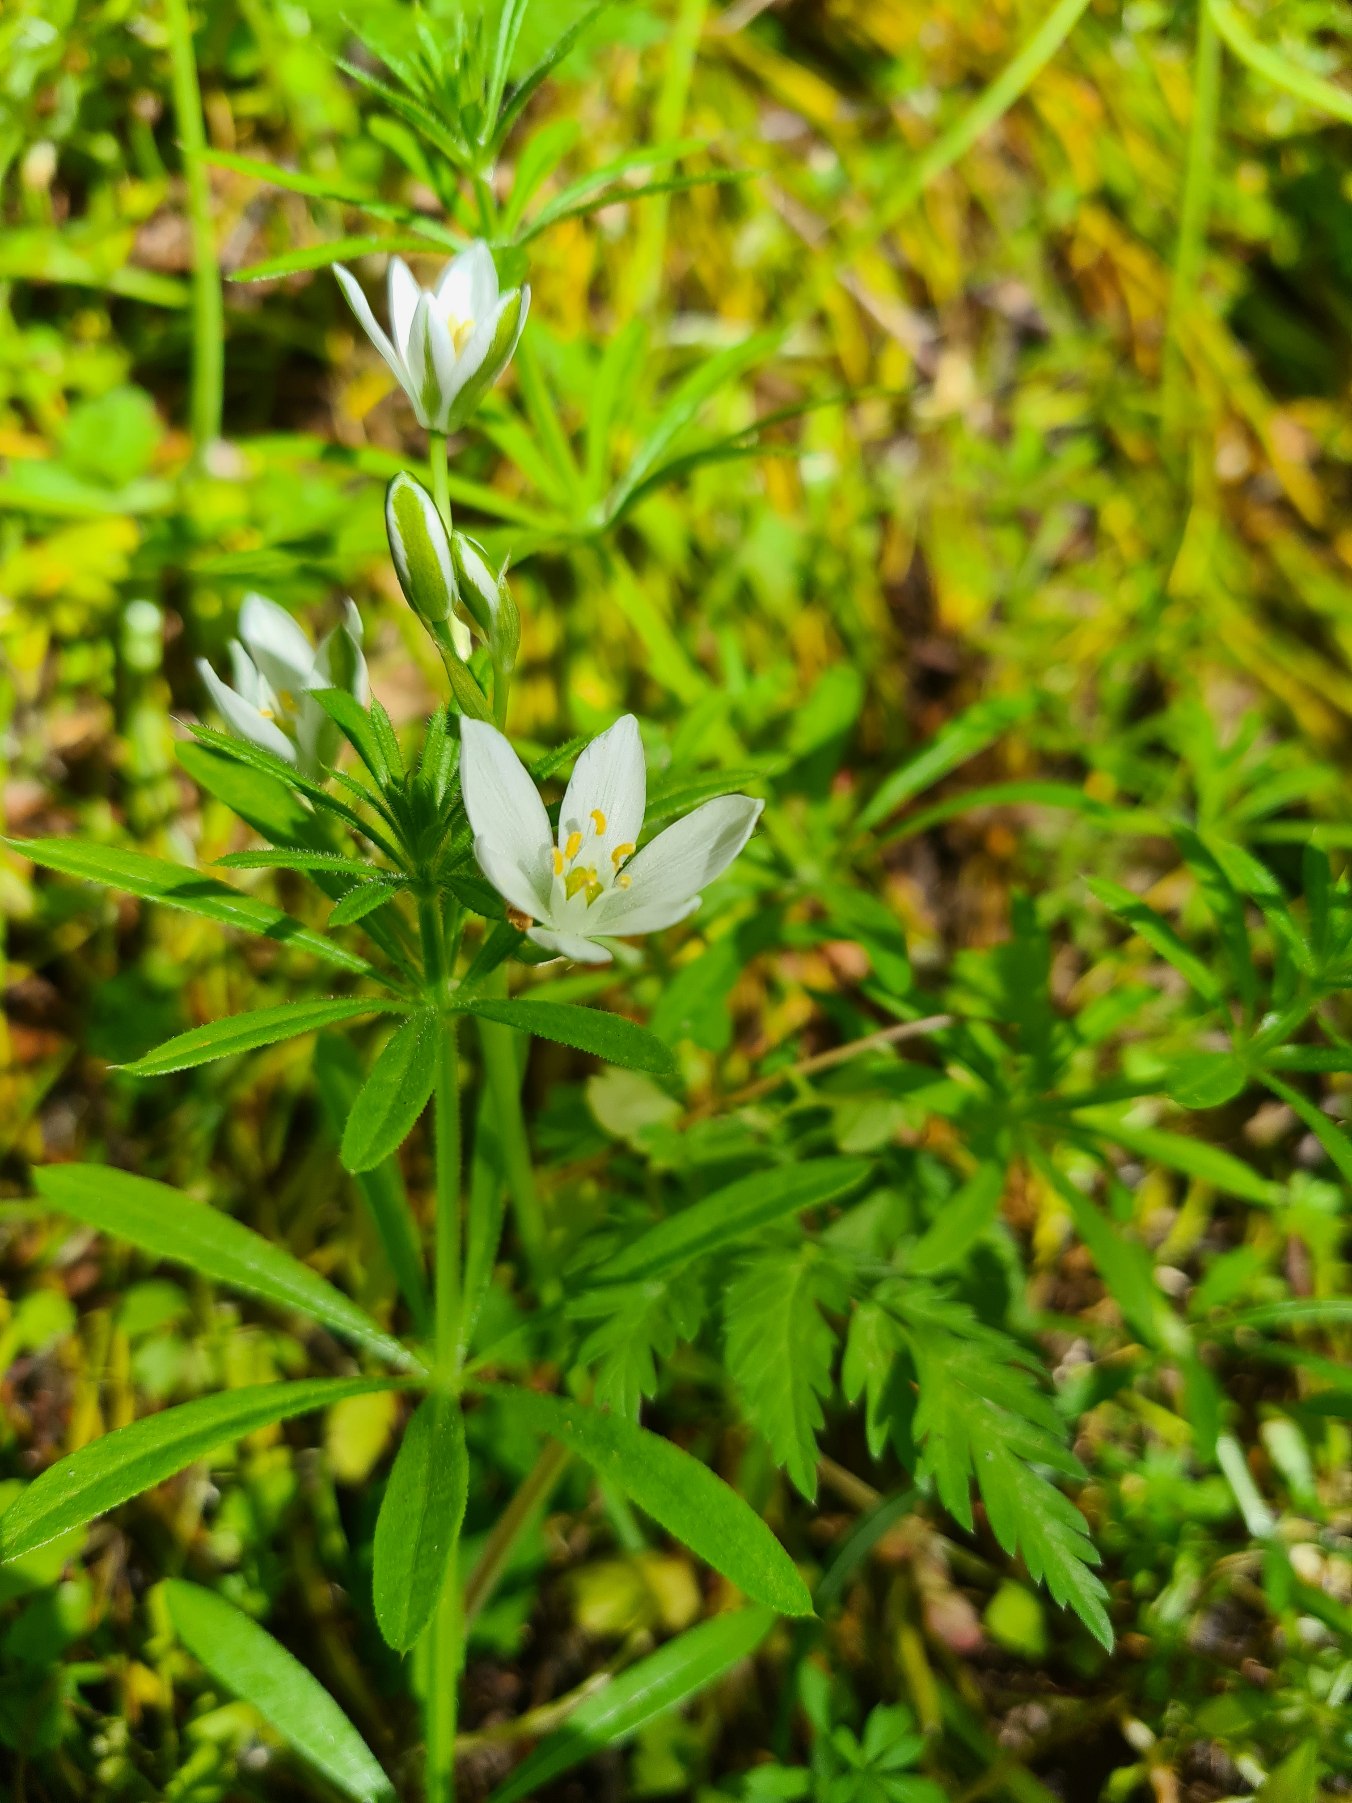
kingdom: Plantae
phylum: Tracheophyta
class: Liliopsida
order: Asparagales
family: Asparagaceae
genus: Ornithogalum
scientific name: Ornithogalum umbellatum
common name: Kost-fuglemælk
